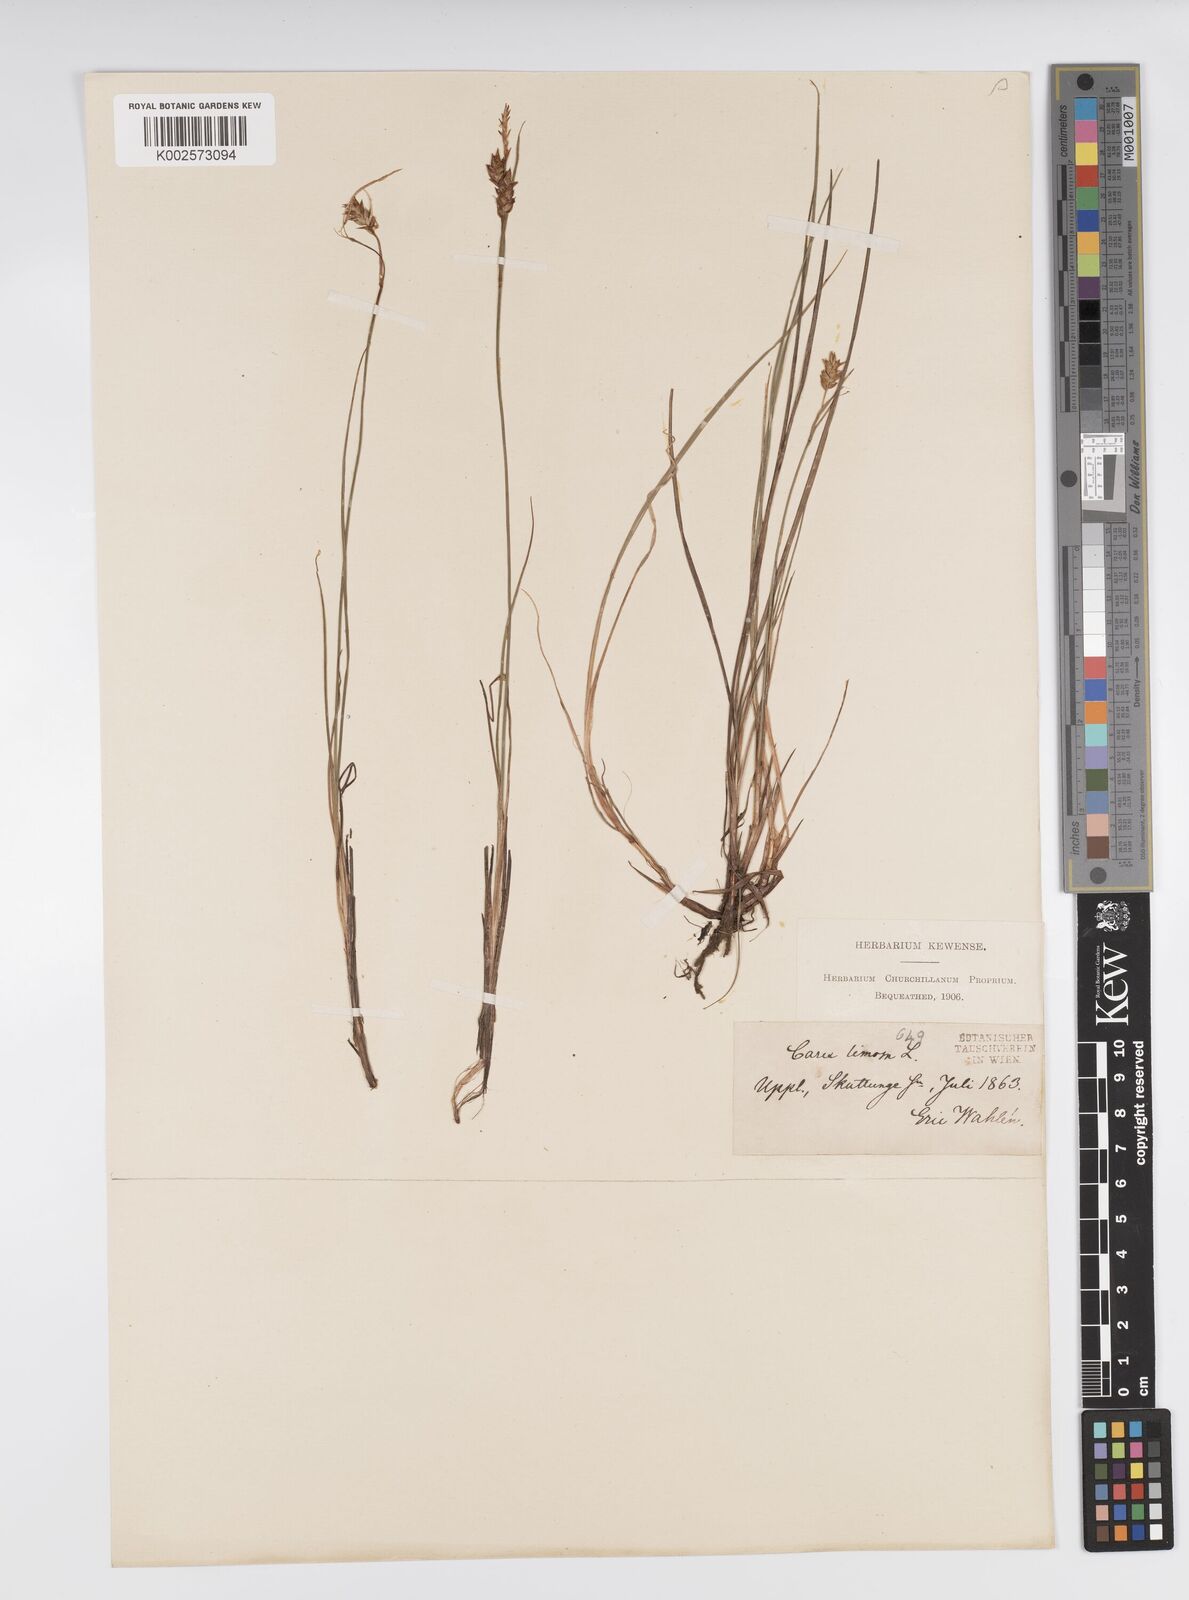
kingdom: Plantae
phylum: Tracheophyta
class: Liliopsida
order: Poales
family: Cyperaceae
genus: Carex
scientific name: Carex limosa
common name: Bog sedge
